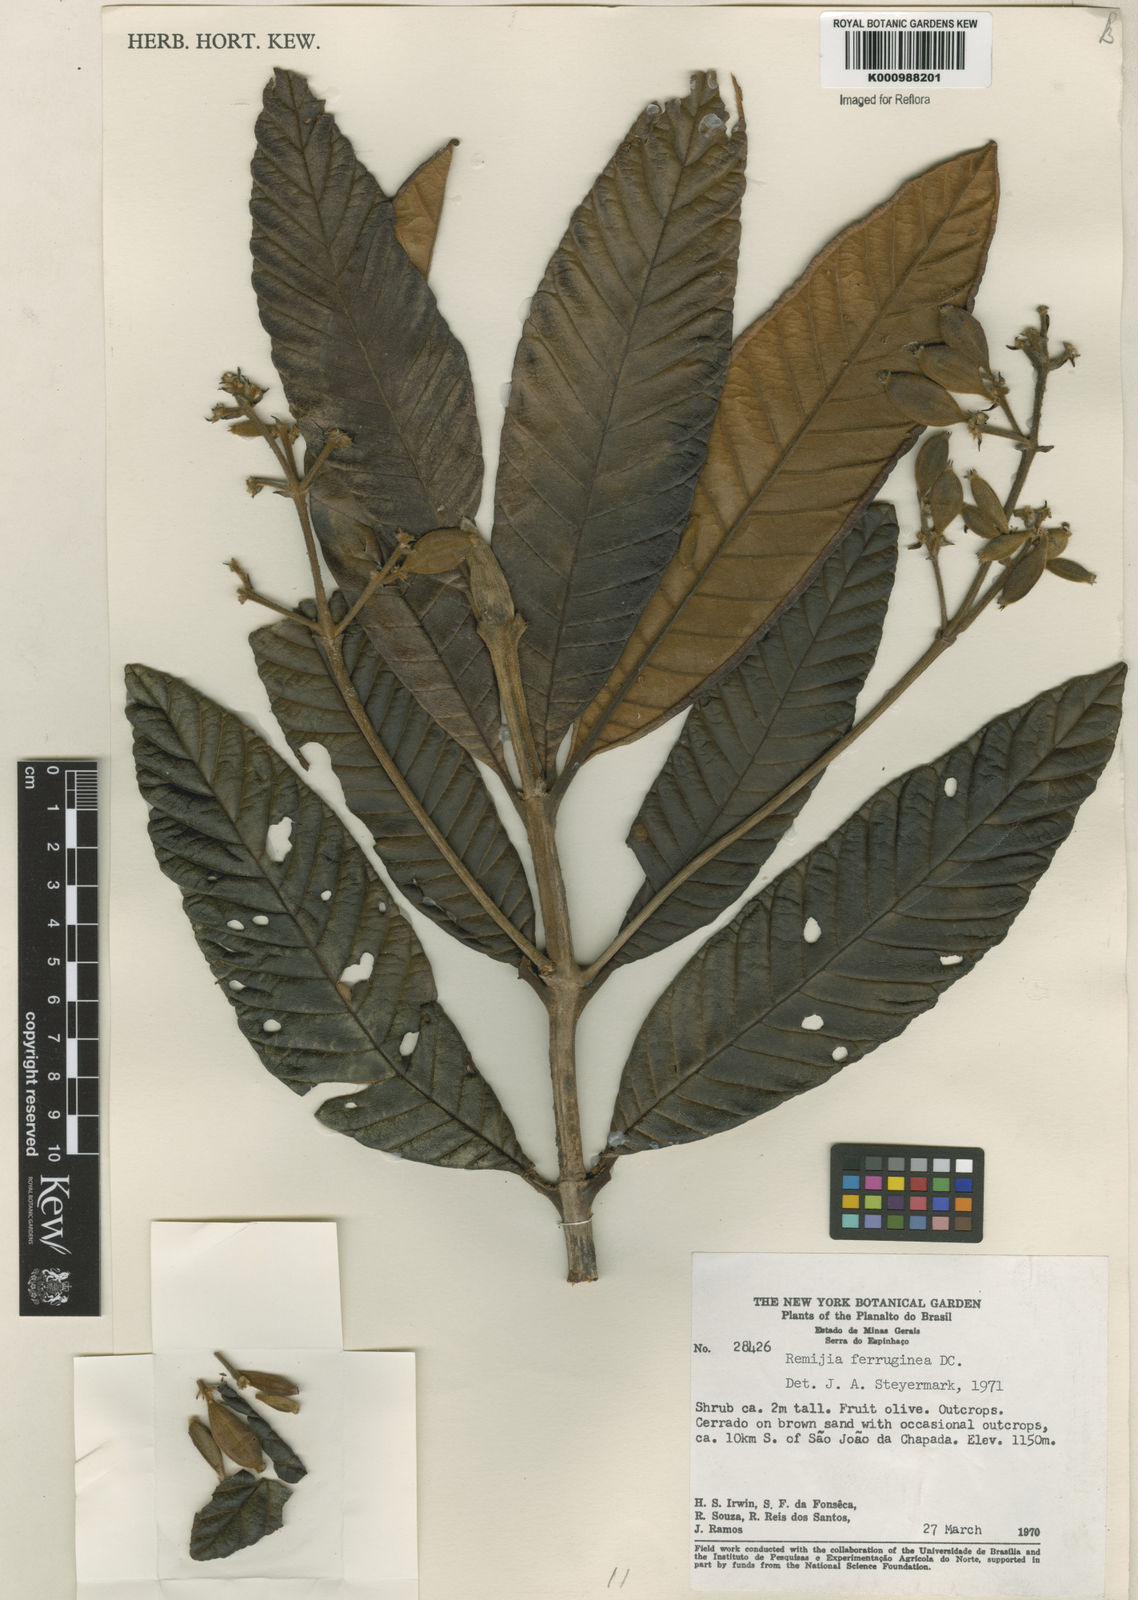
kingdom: Plantae
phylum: Tracheophyta
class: Magnoliopsida
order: Gentianales
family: Rubiaceae
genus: Remijia
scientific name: Remijia ferruginea
